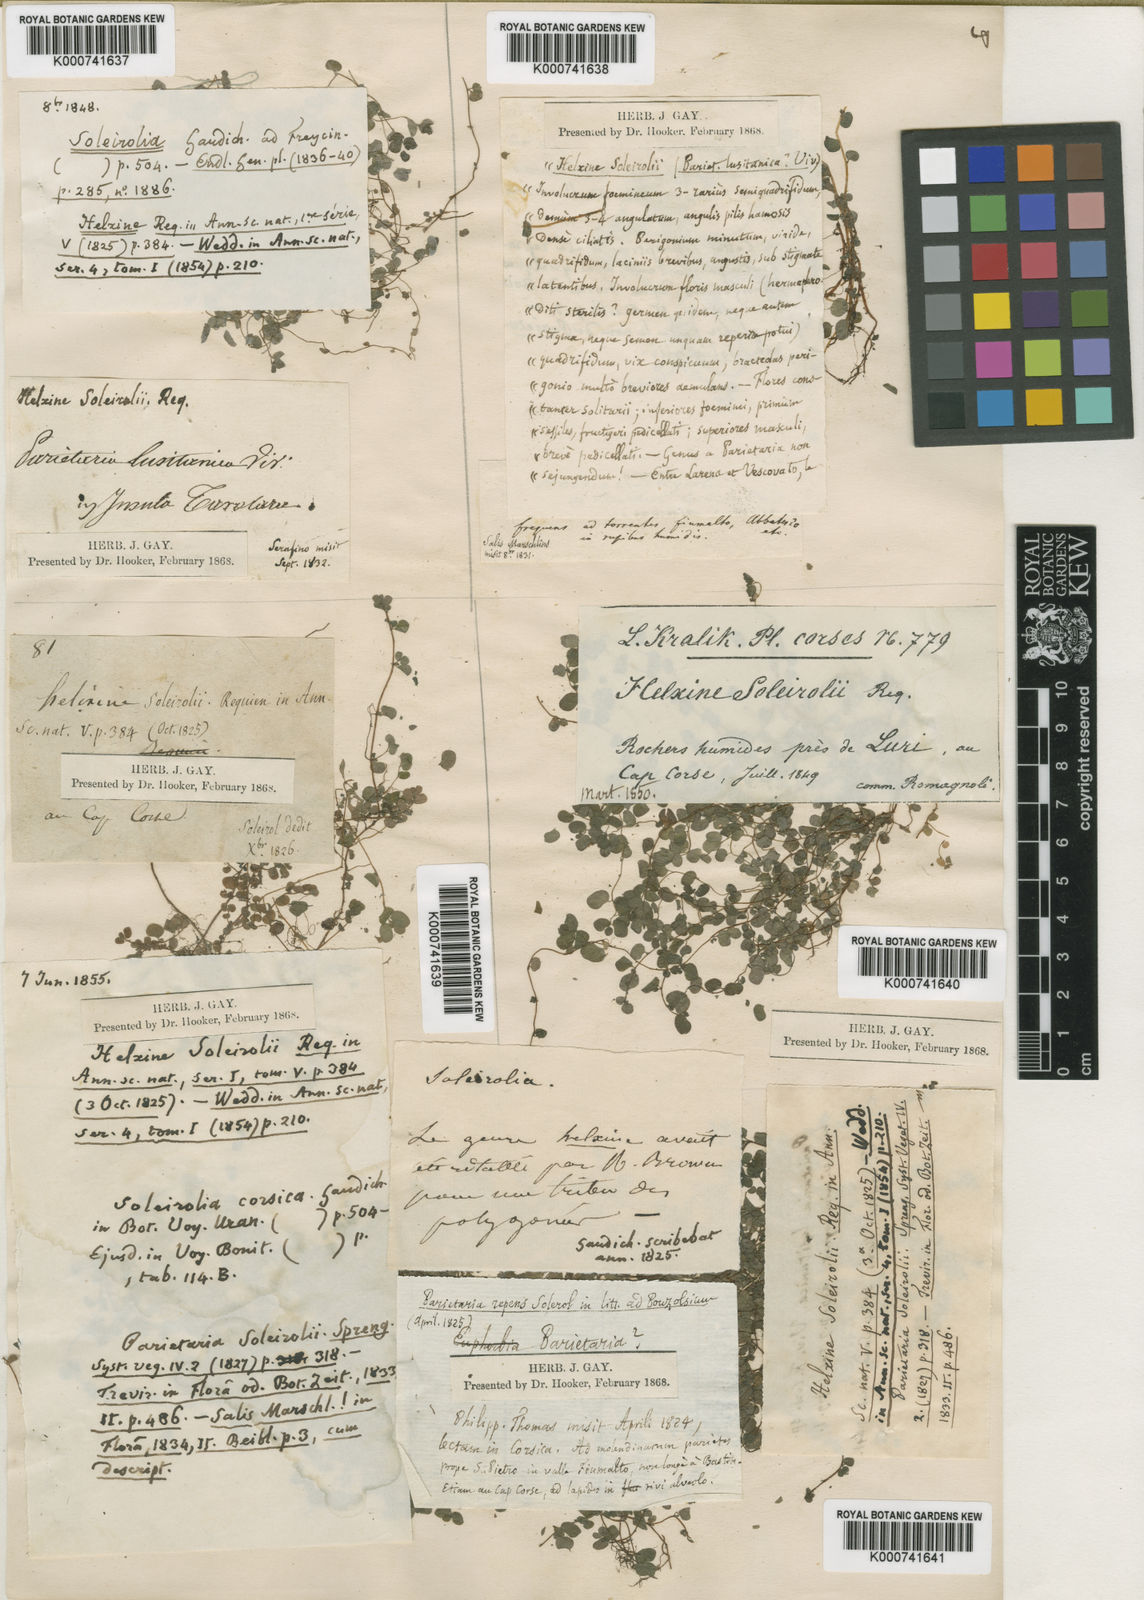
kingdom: Plantae
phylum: Tracheophyta
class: Magnoliopsida
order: Rosales
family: Urticaceae
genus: Soleirolia
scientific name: Soleirolia soleirolii
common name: Mind-your-own-business
